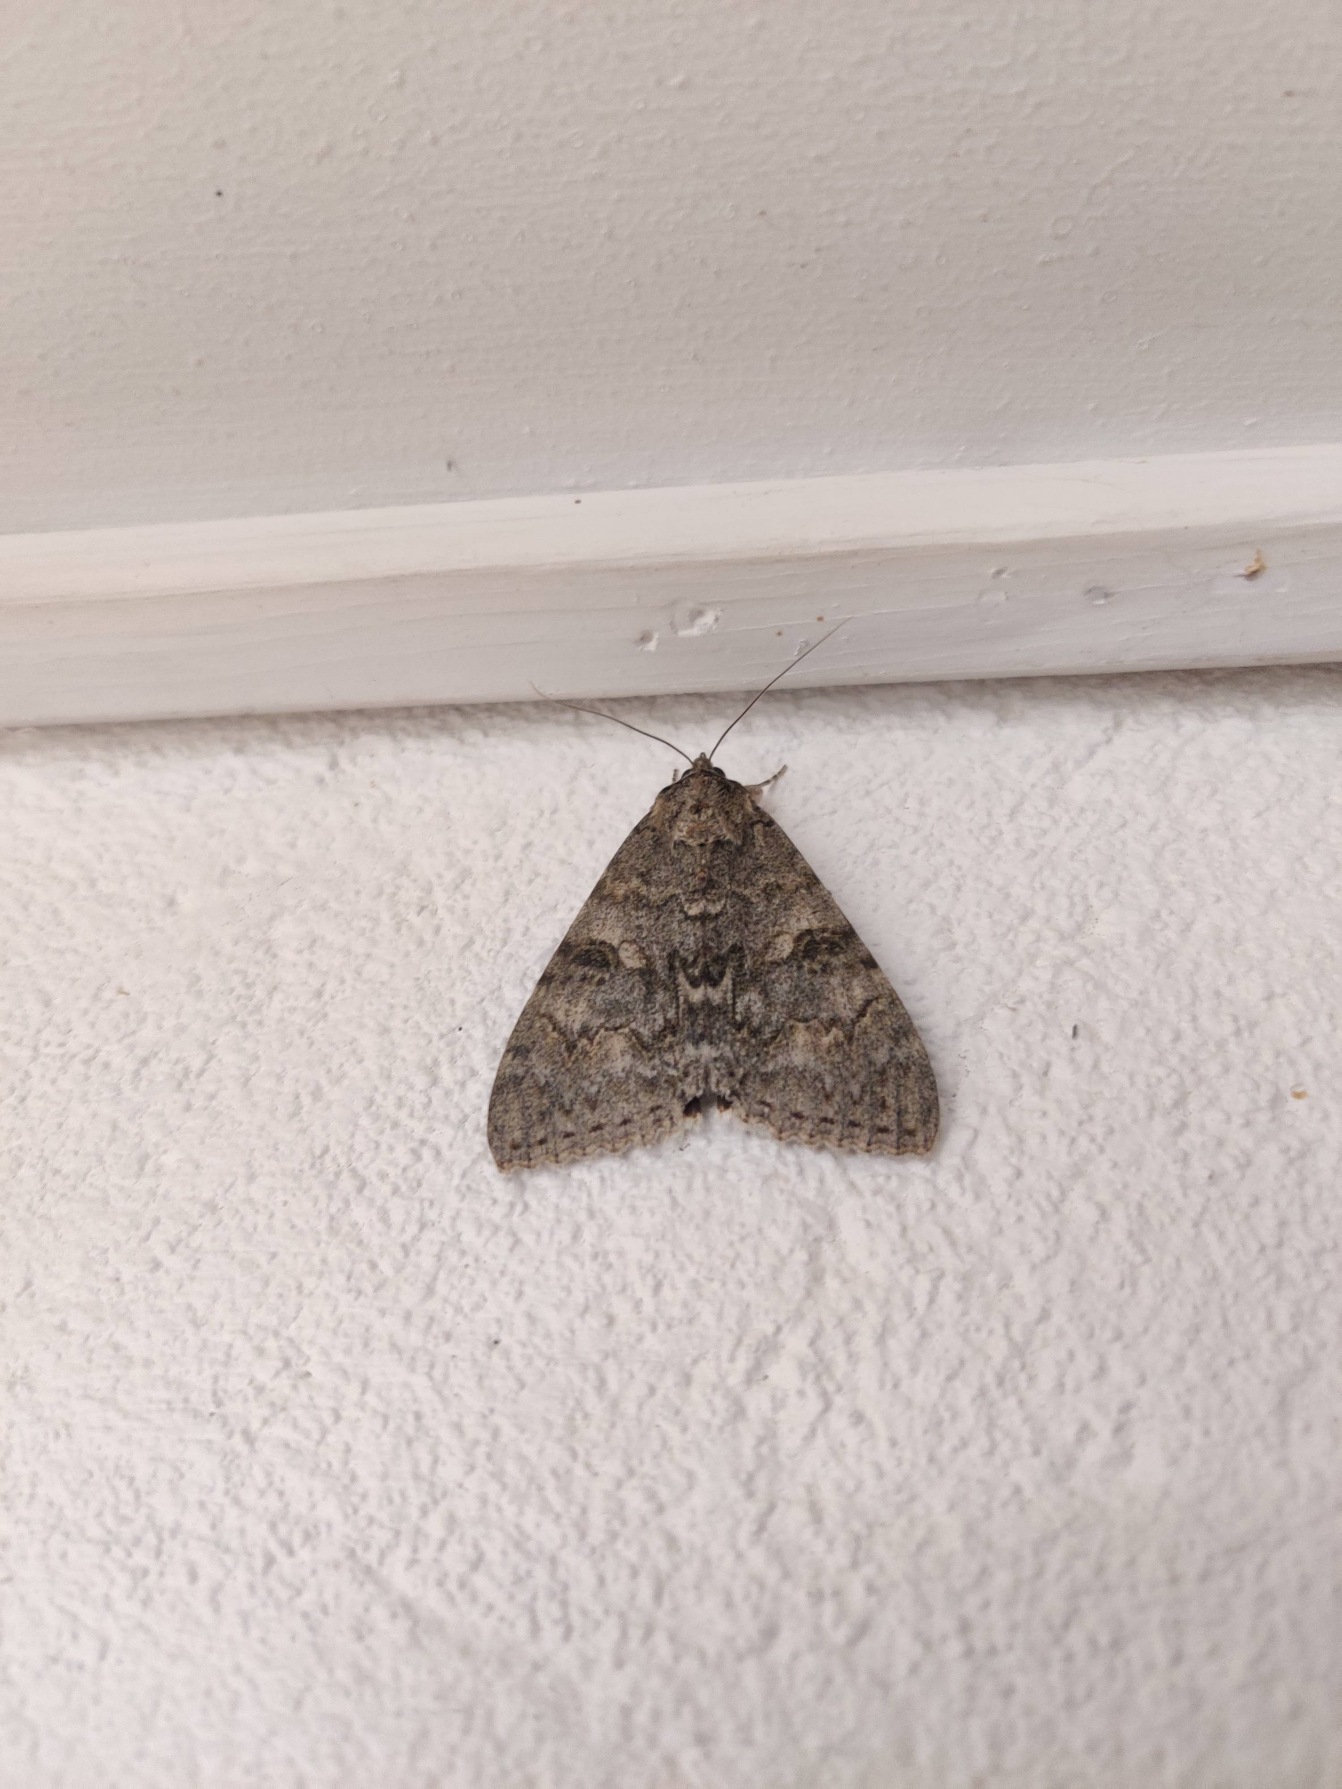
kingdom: Animalia
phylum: Arthropoda
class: Insecta
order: Lepidoptera
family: Erebidae
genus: Catocala
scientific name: Catocala nupta
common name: Rødt ordensbånd
